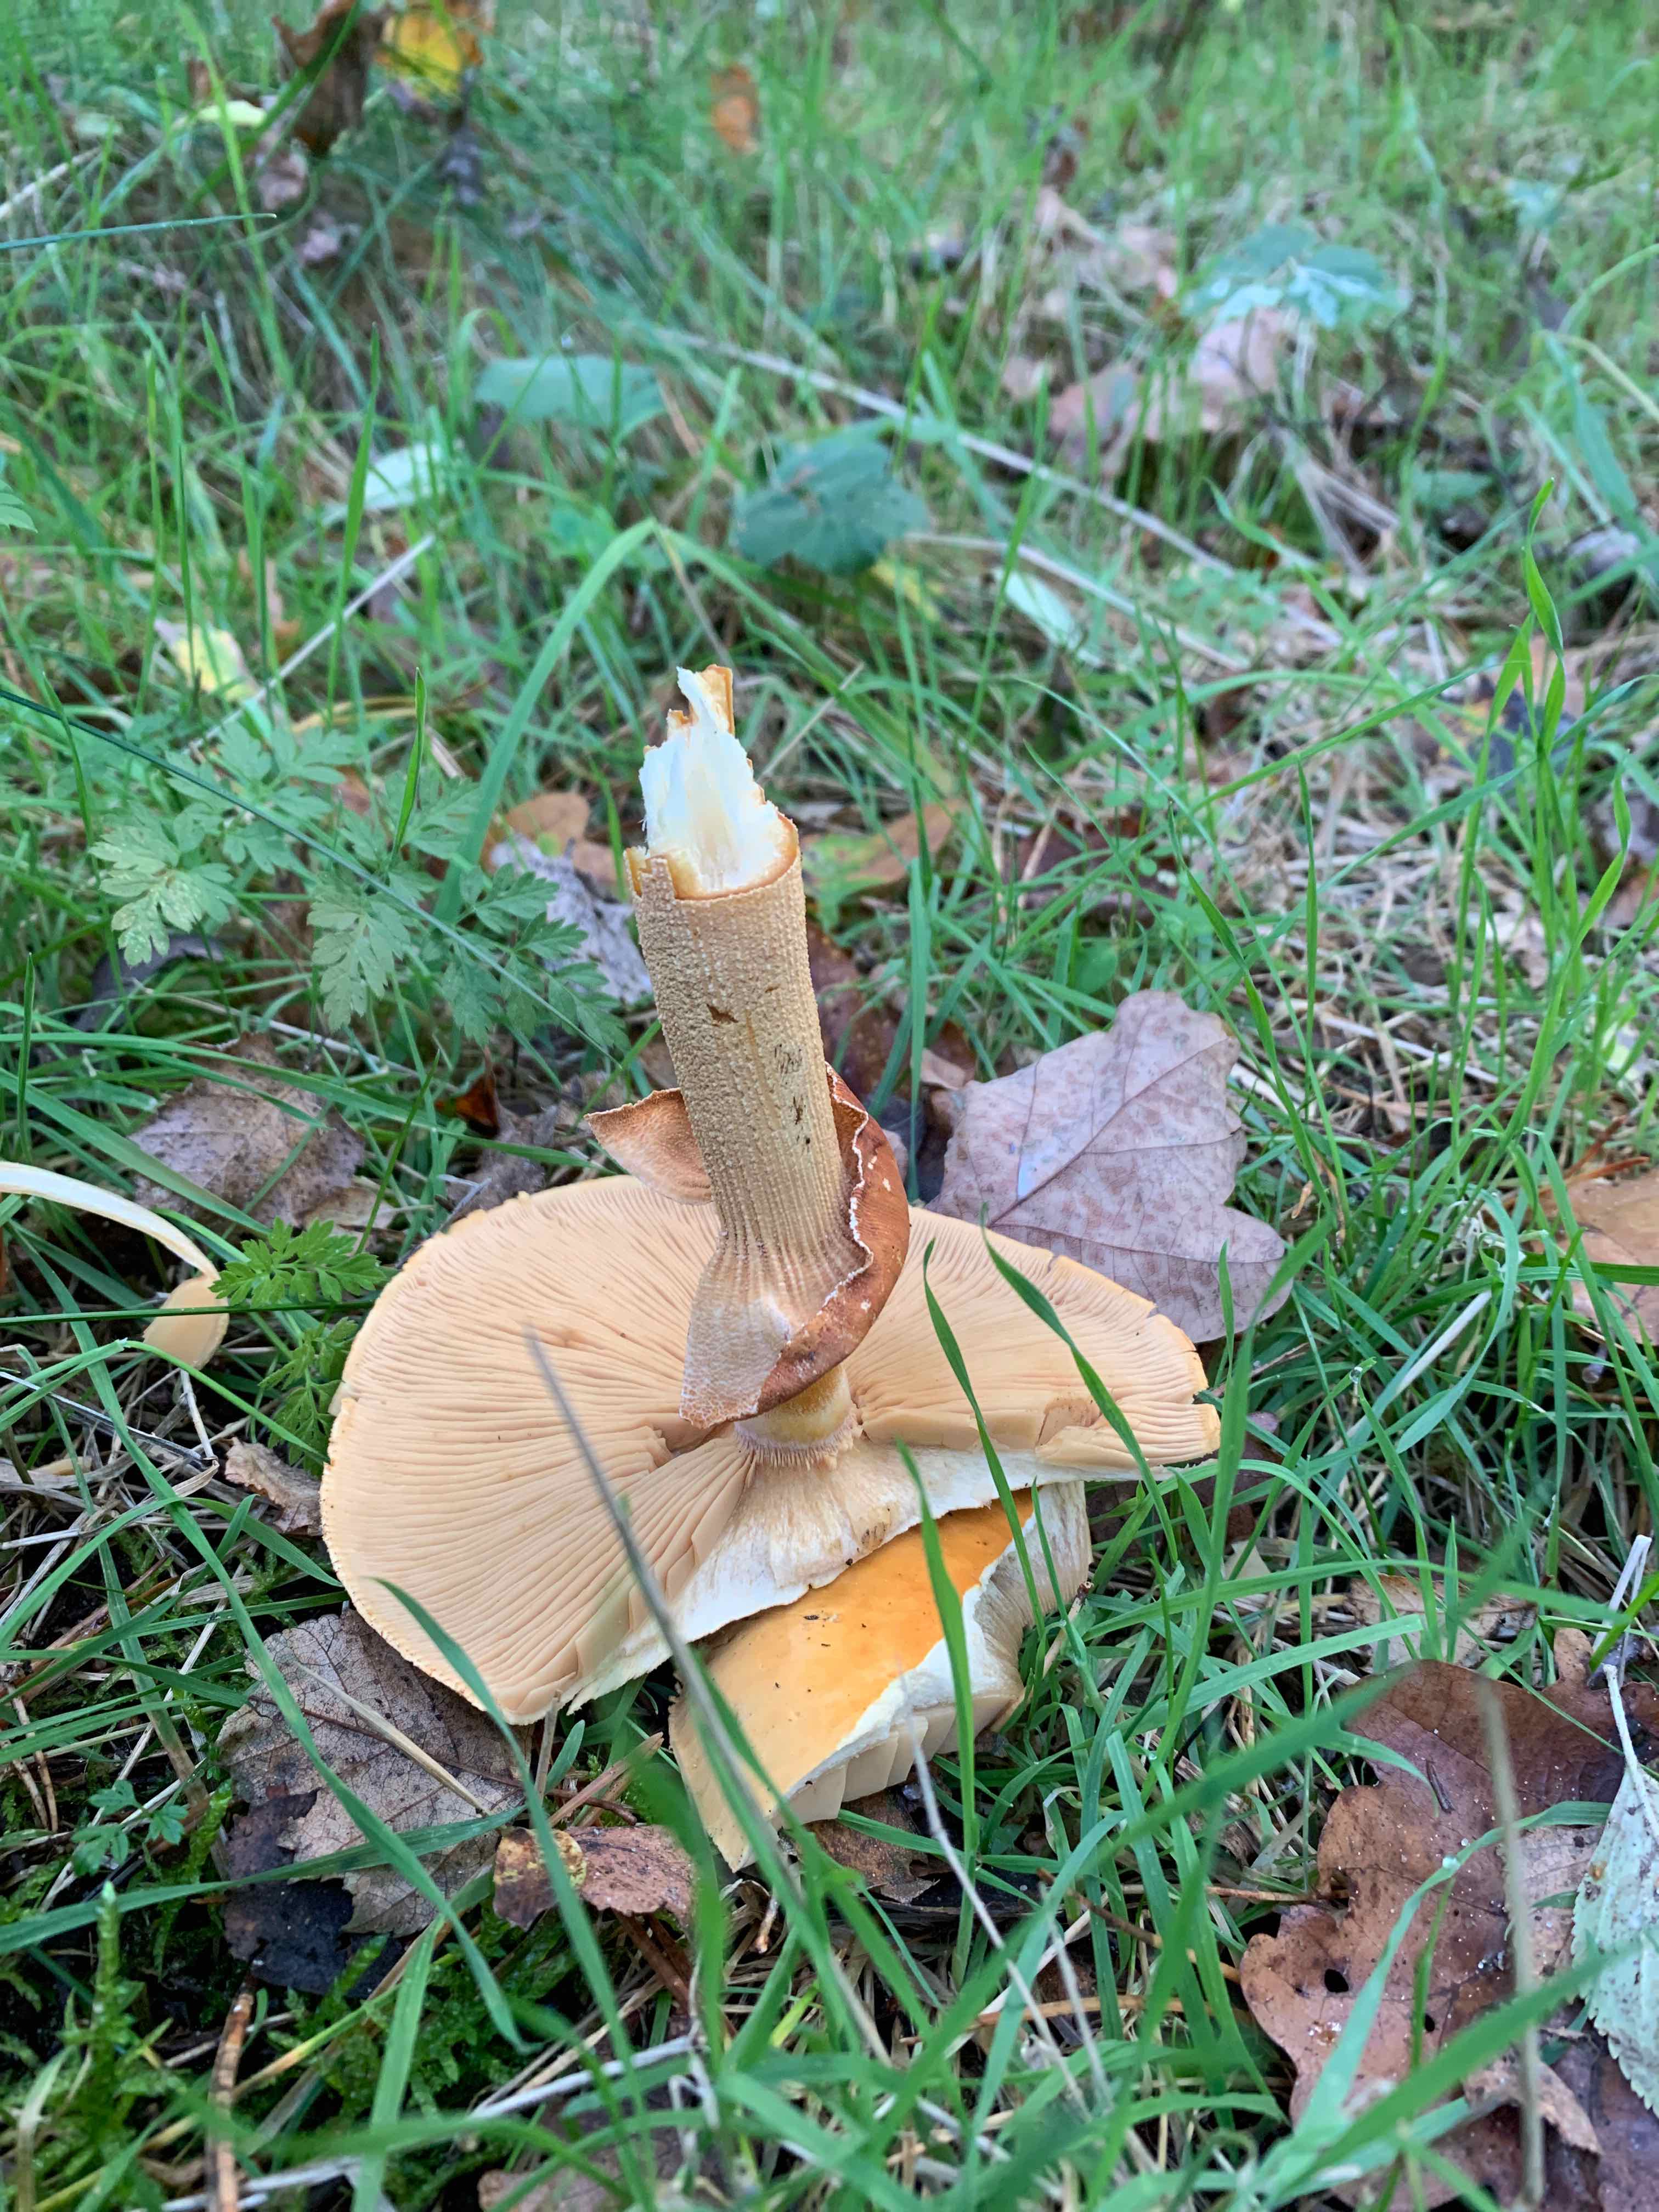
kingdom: Fungi
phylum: Basidiomycota
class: Agaricomycetes
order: Agaricales
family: Tricholomataceae
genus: Phaeolepiota
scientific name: Phaeolepiota aurea
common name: gyldenhat
